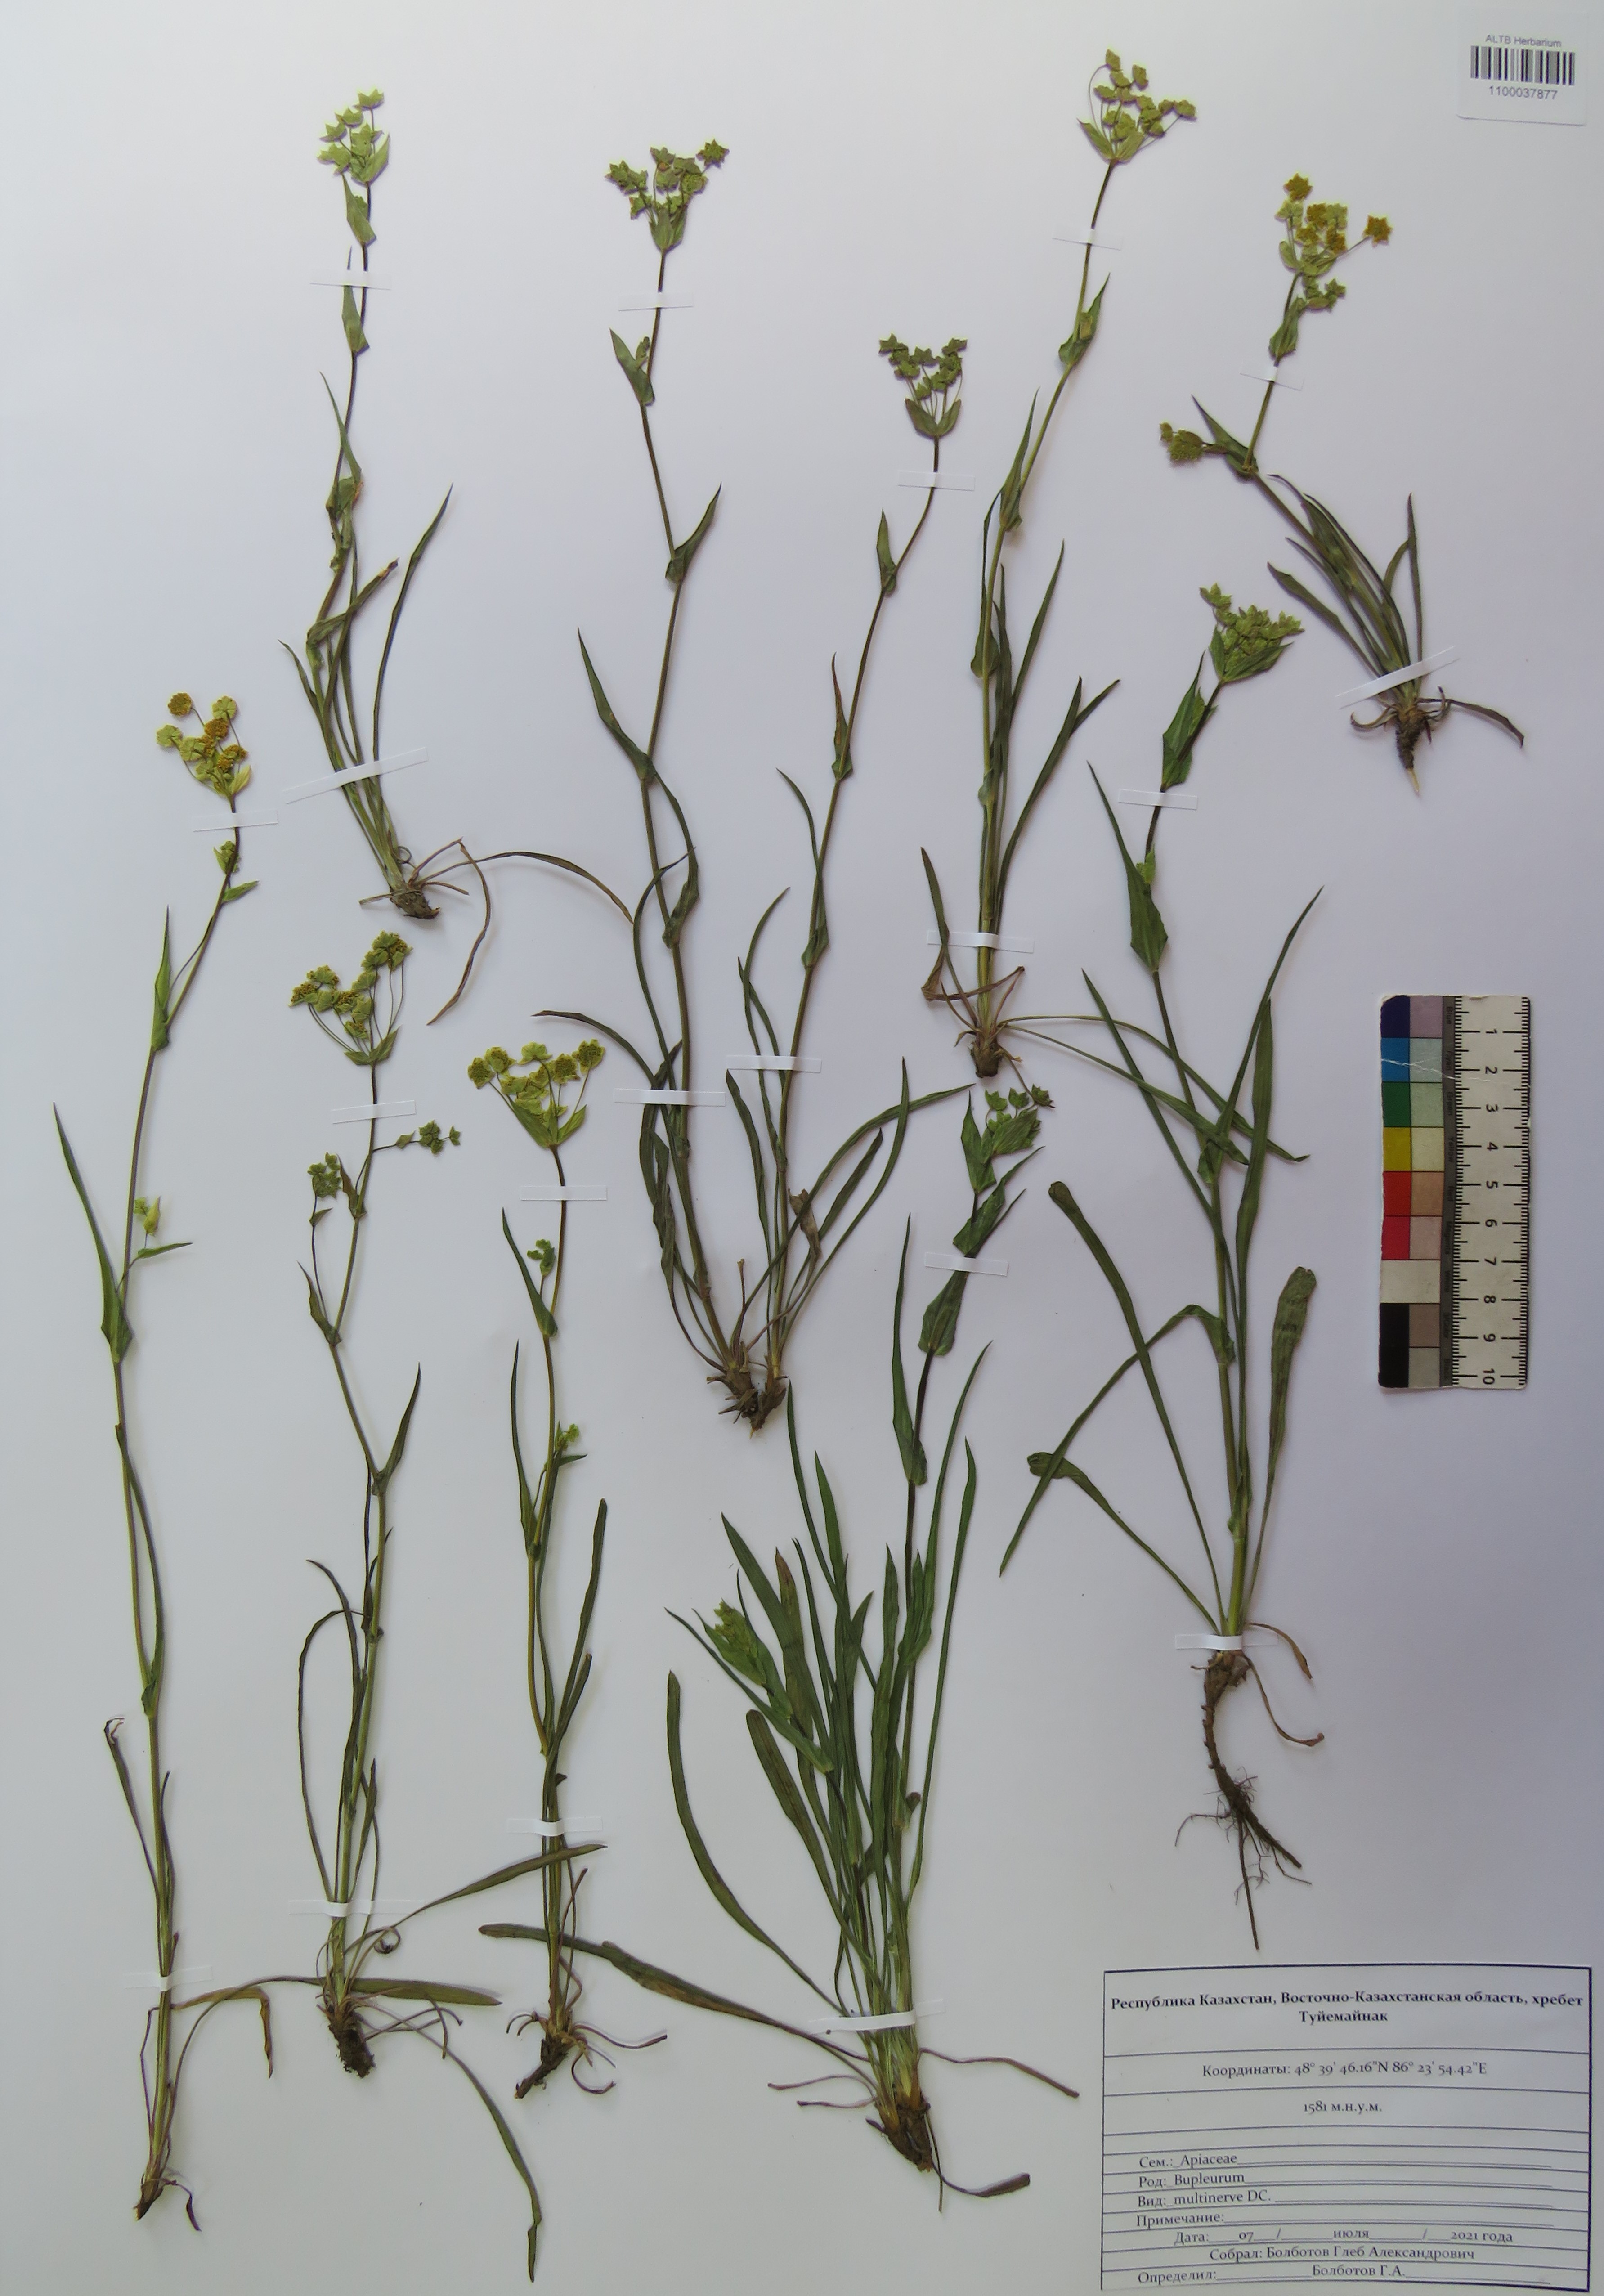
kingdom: Plantae
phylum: Tracheophyta
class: Magnoliopsida
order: Apiales
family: Apiaceae
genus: Bupleurum
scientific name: Bupleurum multinerve
